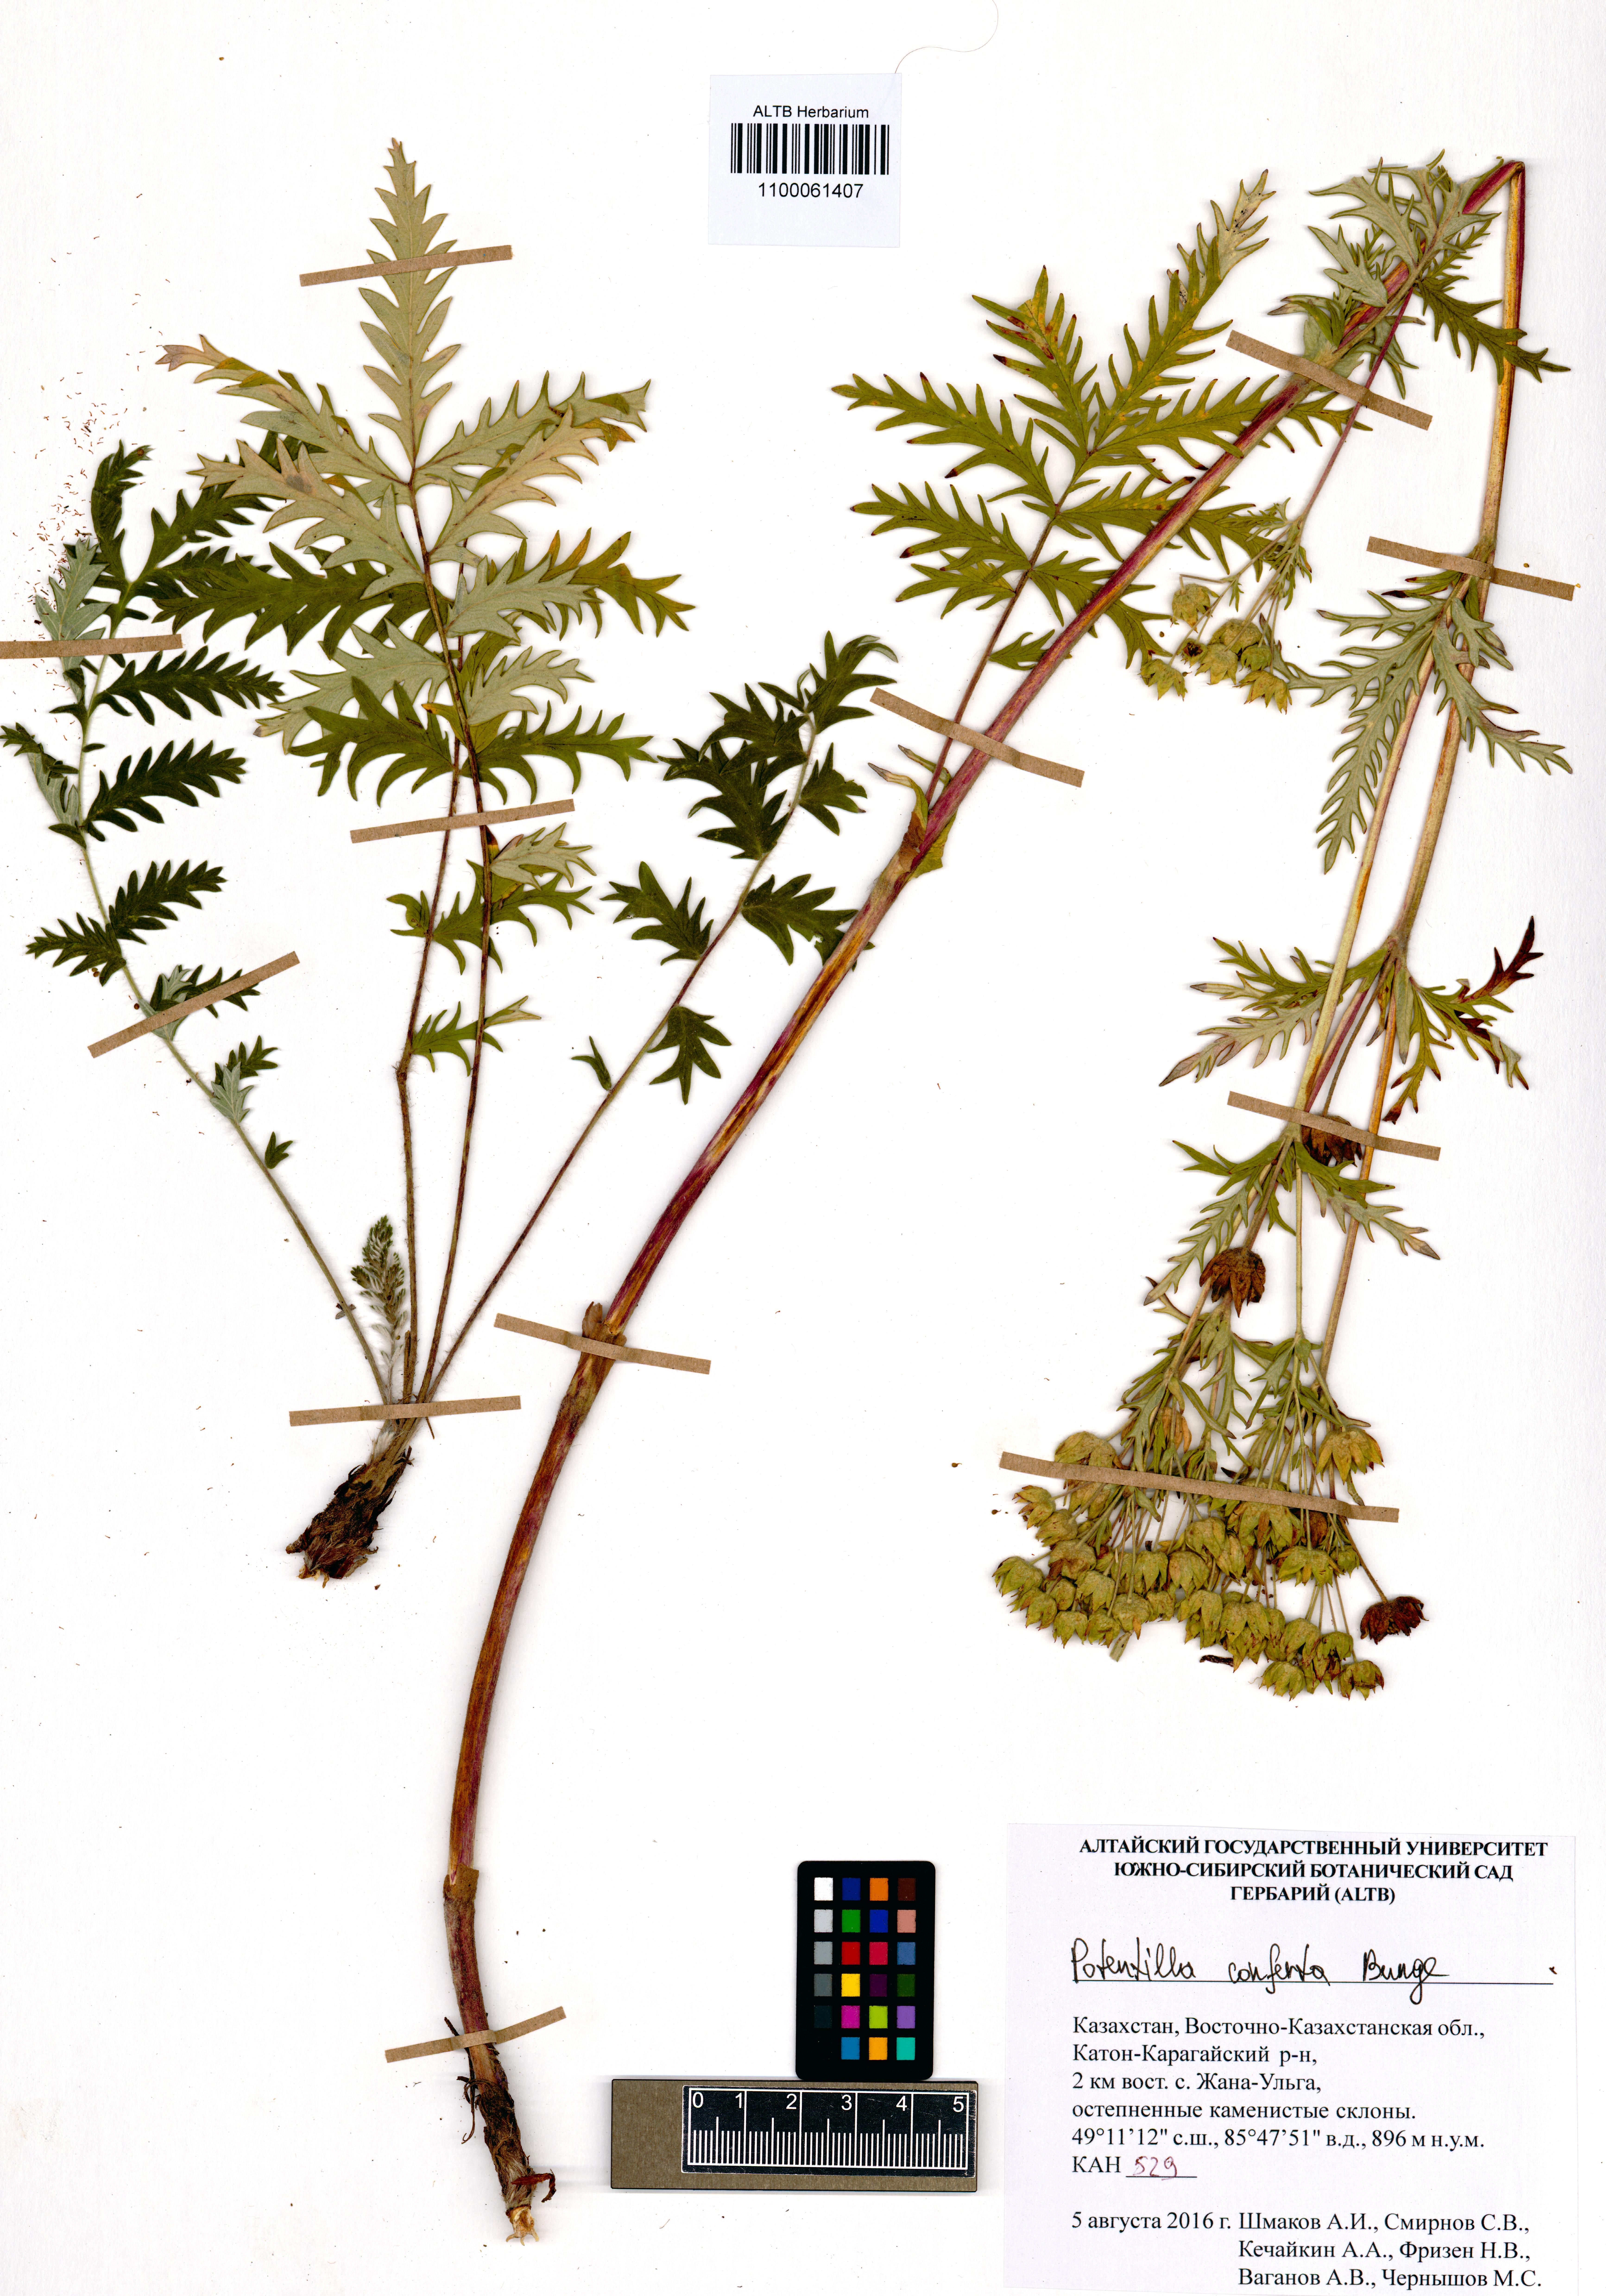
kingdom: Plantae
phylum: Tracheophyta
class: Magnoliopsida
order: Rosales
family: Rosaceae
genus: Potentilla
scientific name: Potentilla conferta
